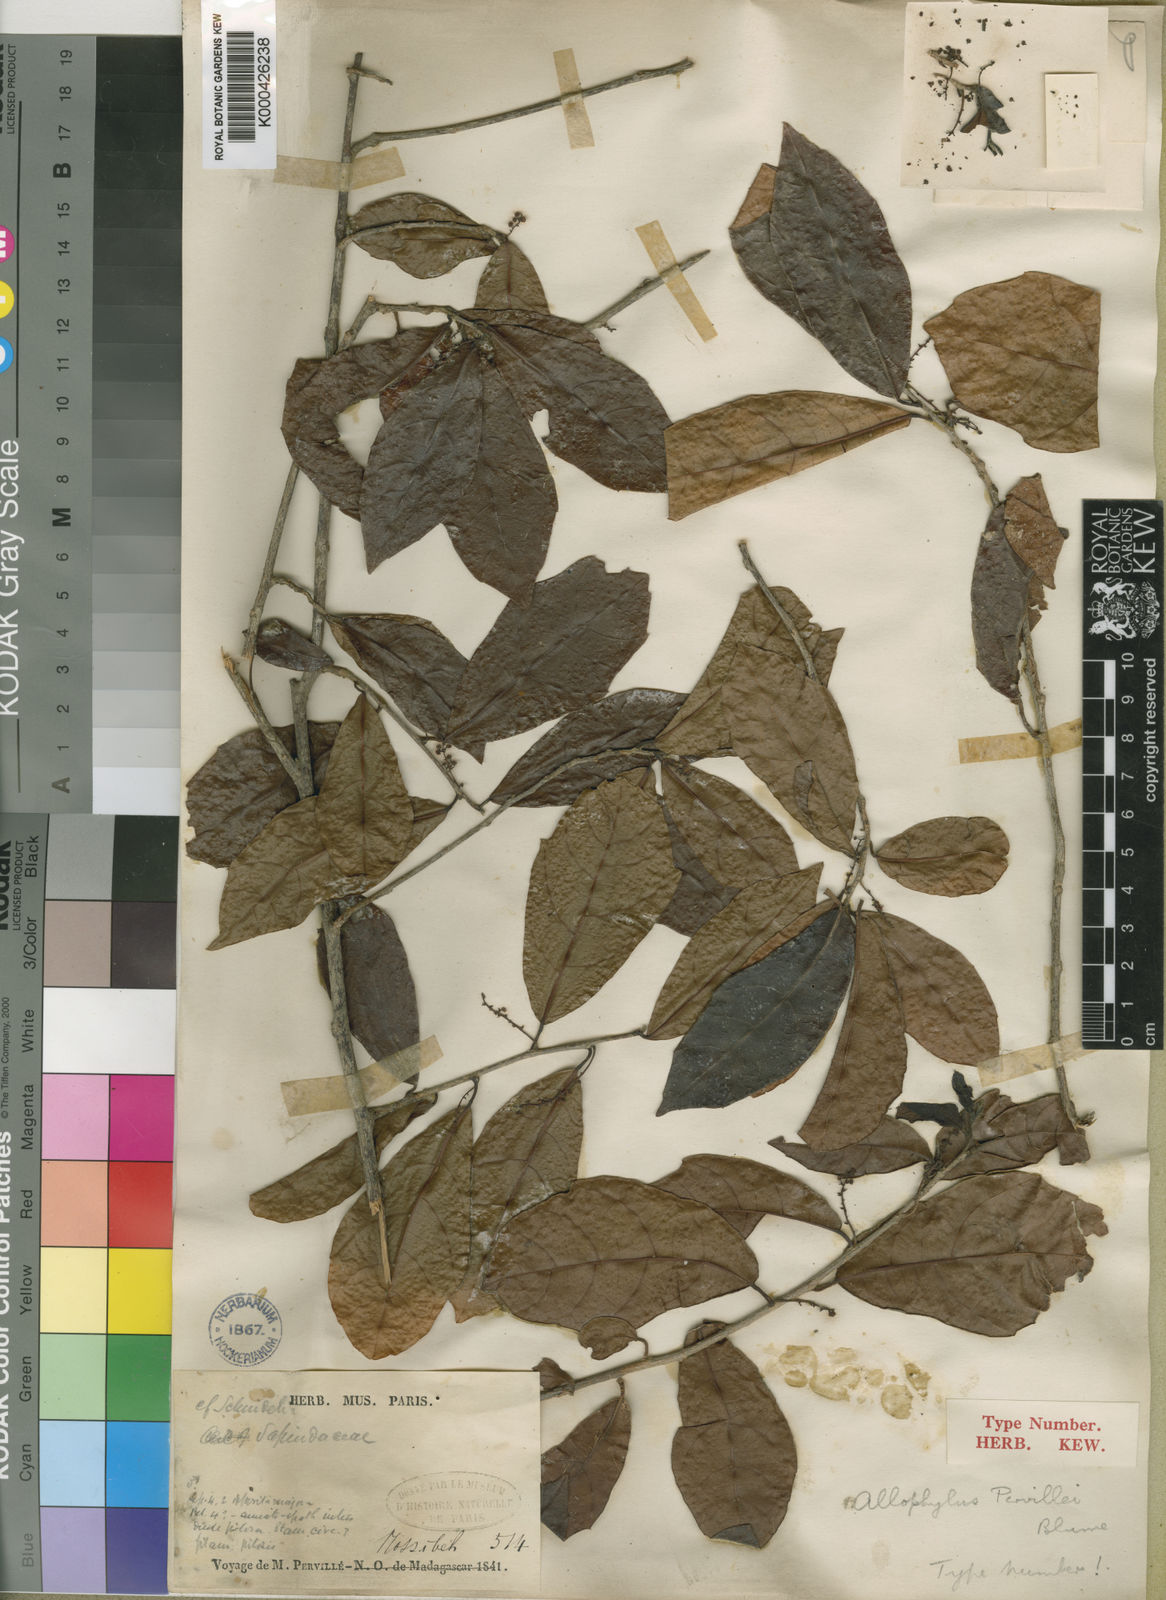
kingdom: Plantae
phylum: Tracheophyta
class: Magnoliopsida
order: Sapindales
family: Sapindaceae
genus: Allophylus
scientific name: Allophylus pervillei
